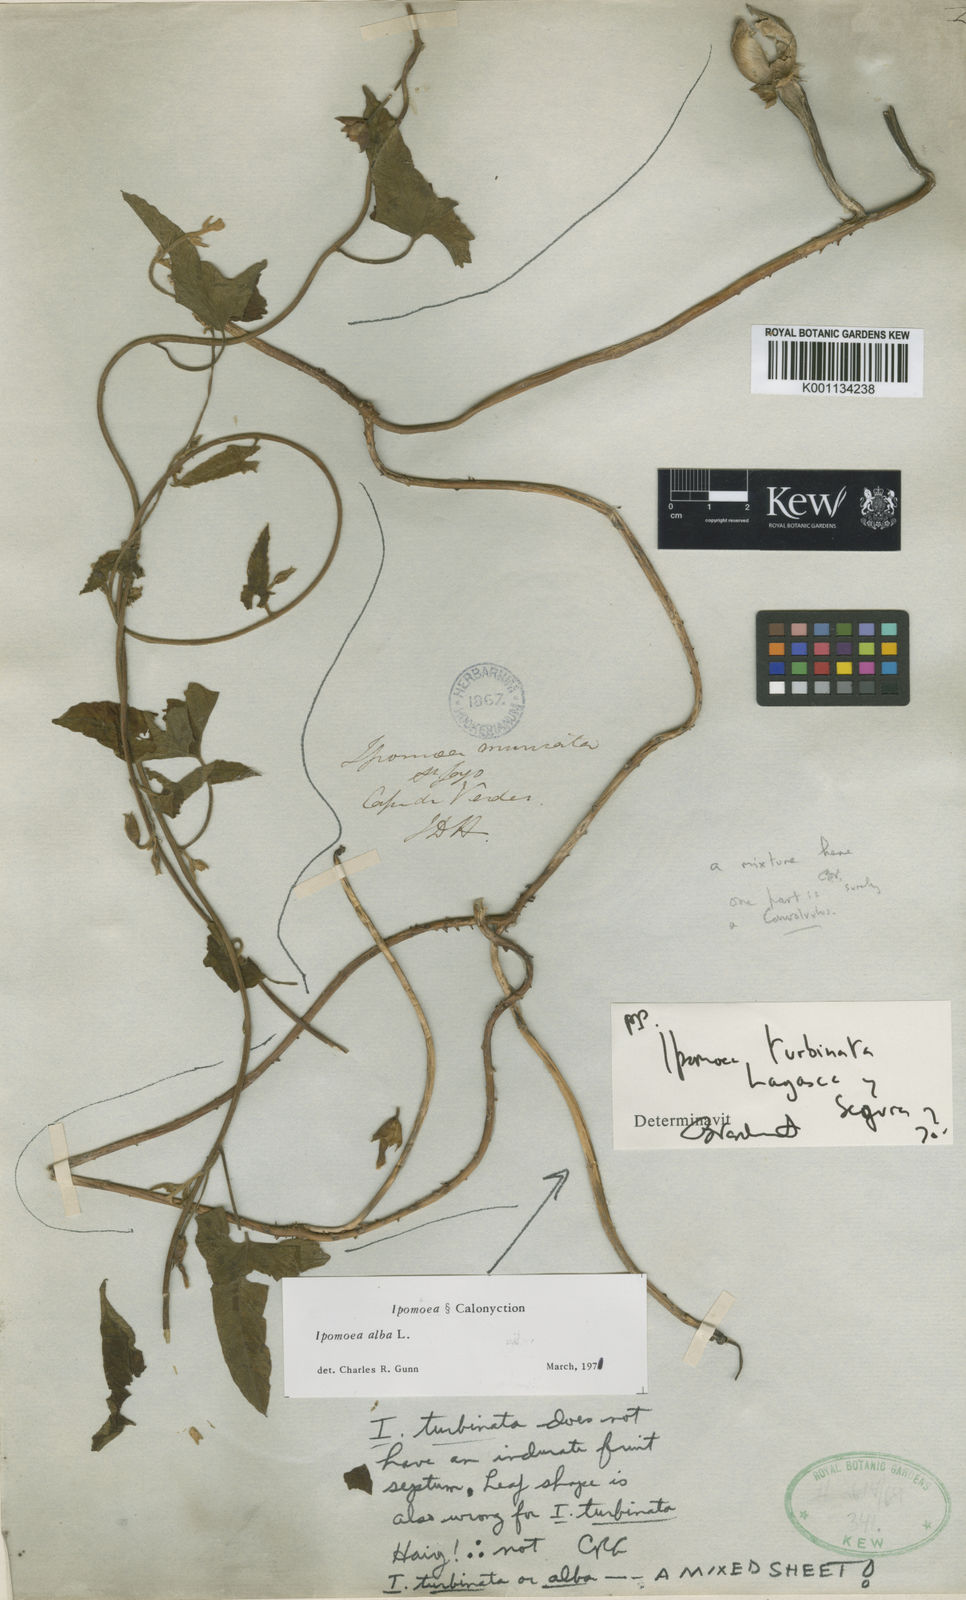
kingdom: Plantae
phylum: Tracheophyta
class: Magnoliopsida
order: Solanales
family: Convolvulaceae
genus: Ipomoea
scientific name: Ipomoea alba
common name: Moonflower
